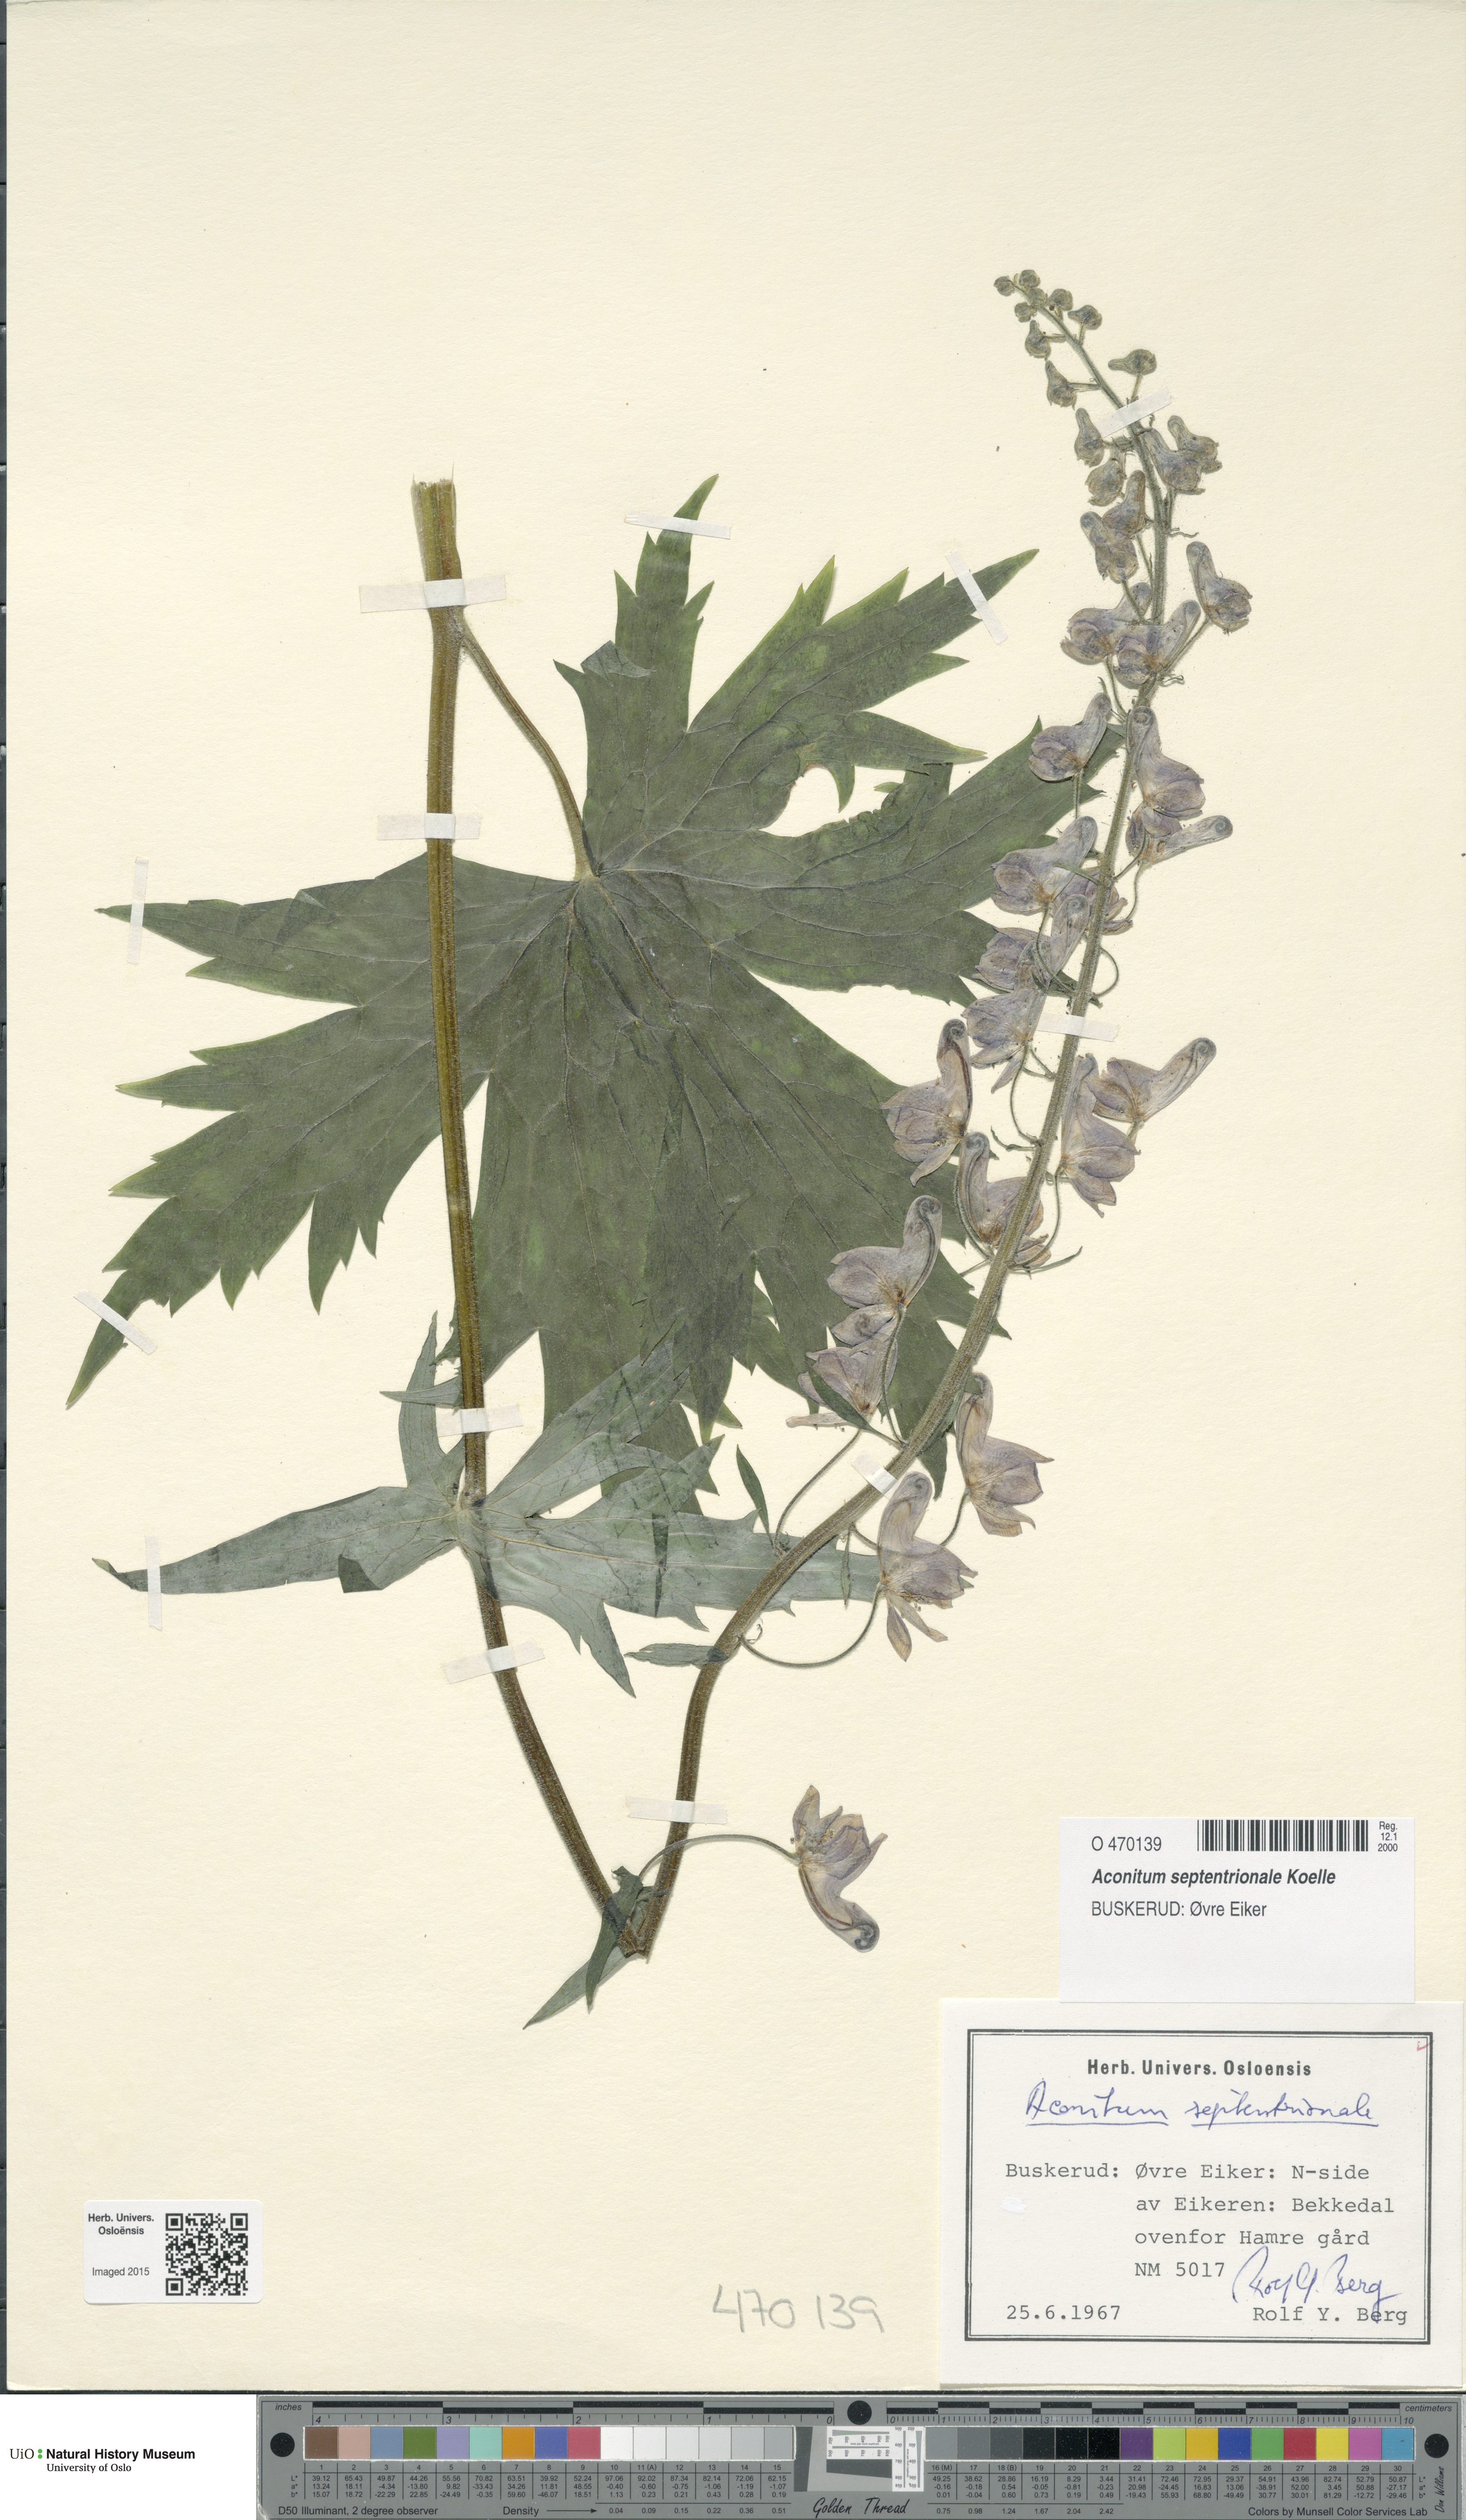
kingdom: Plantae
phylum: Tracheophyta
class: Magnoliopsida
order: Ranunculales
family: Ranunculaceae
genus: Aconitum
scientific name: Aconitum septentrionale
